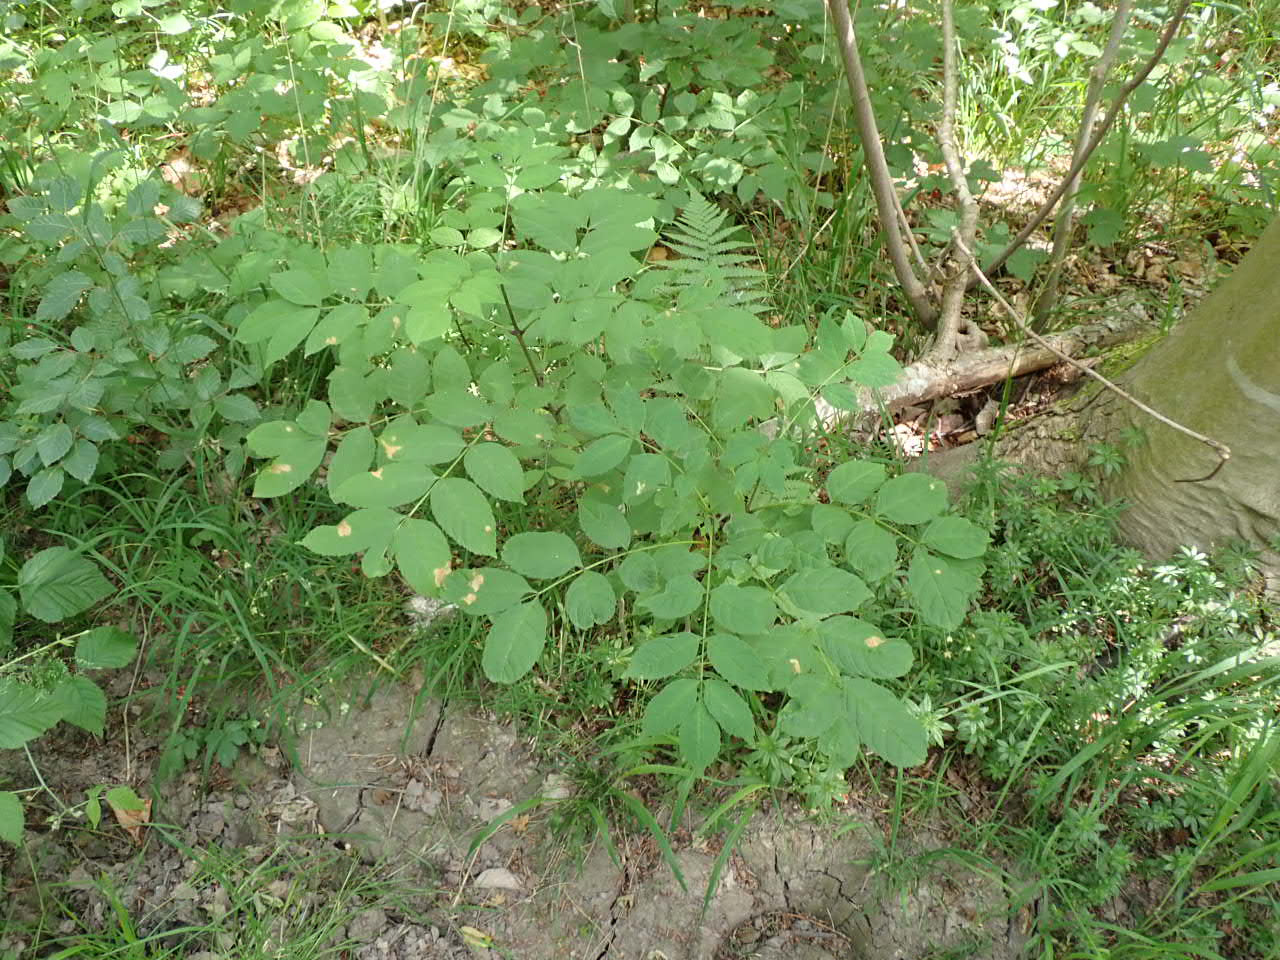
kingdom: Plantae
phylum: Tracheophyta
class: Magnoliopsida
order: Lamiales
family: Oleaceae
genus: Fraxinus
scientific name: Fraxinus excelsior
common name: Ask
